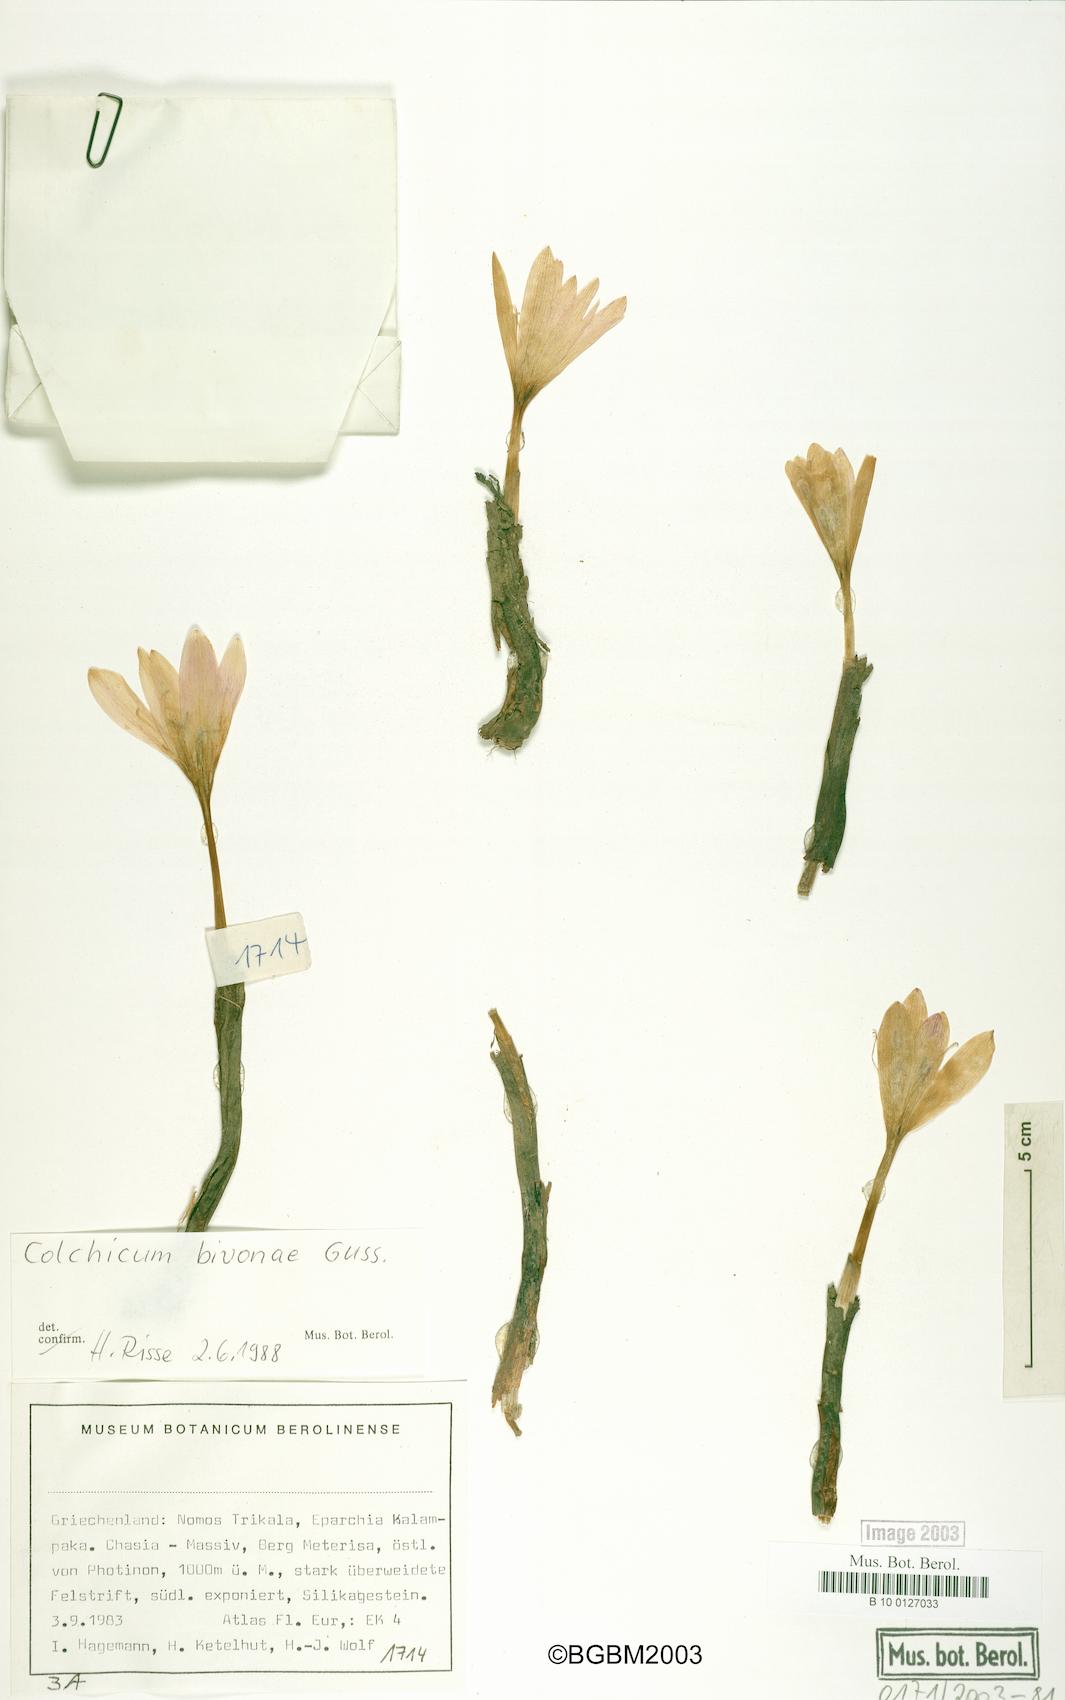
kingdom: Plantae
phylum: Tracheophyta
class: Liliopsida
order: Liliales
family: Colchicaceae
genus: Colchicum
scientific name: Colchicum bivonae
